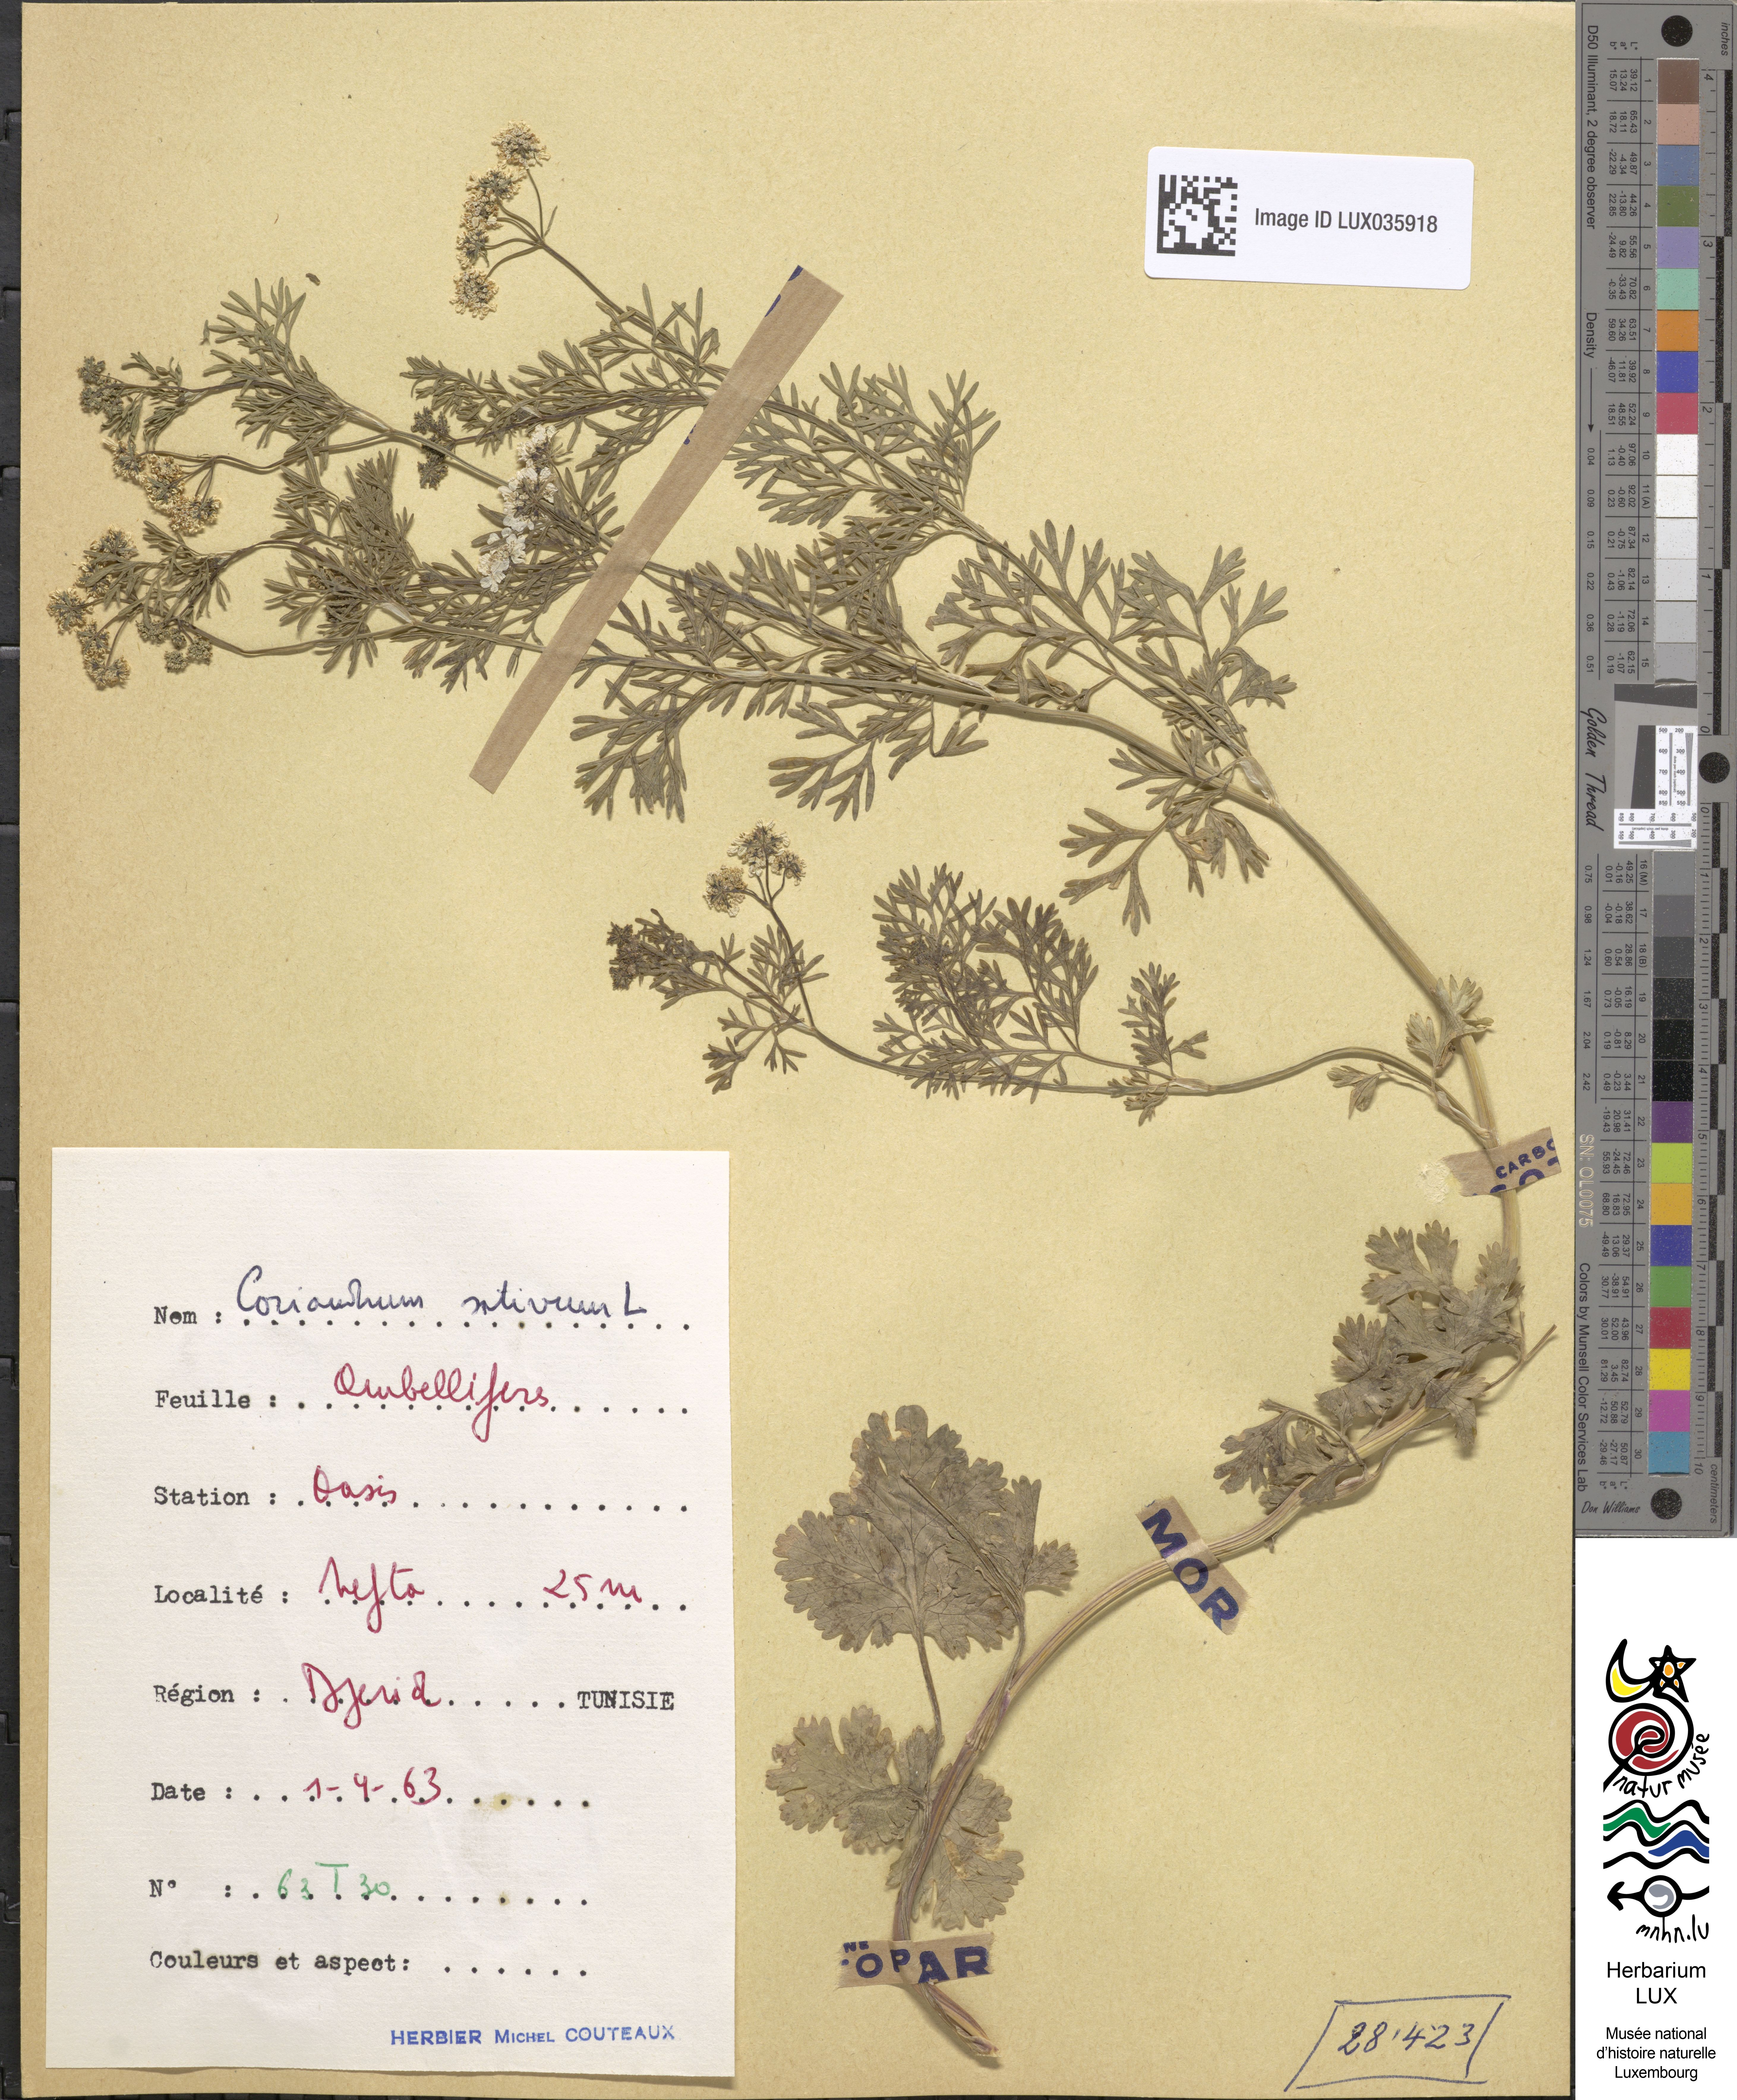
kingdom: Plantae
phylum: Tracheophyta
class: Magnoliopsida
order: Apiales
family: Apiaceae
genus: Coriandrum
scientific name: Coriandrum sativum
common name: Coriander
